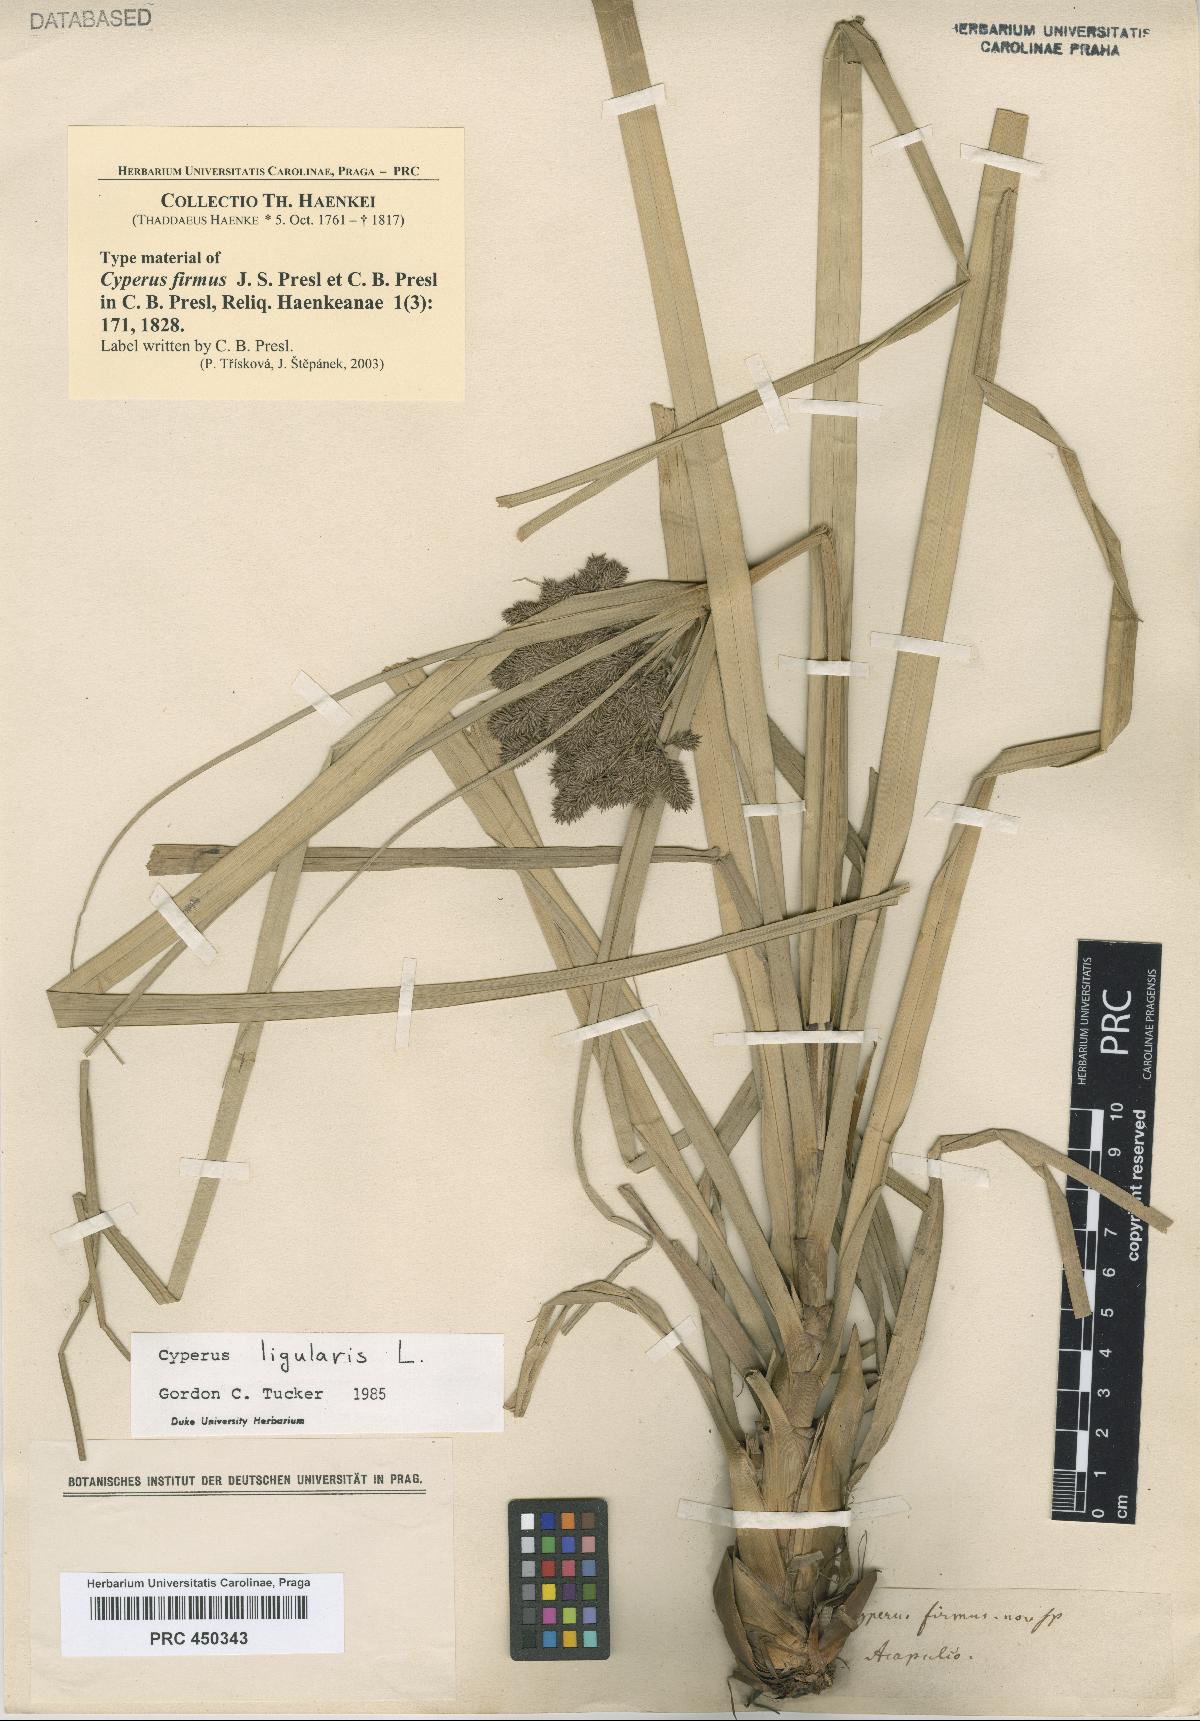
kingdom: Plantae
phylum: Tracheophyta
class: Liliopsida
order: Poales
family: Cyperaceae
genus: Cyperus
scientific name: Cyperus ligularis
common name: Swamp flat sedge
